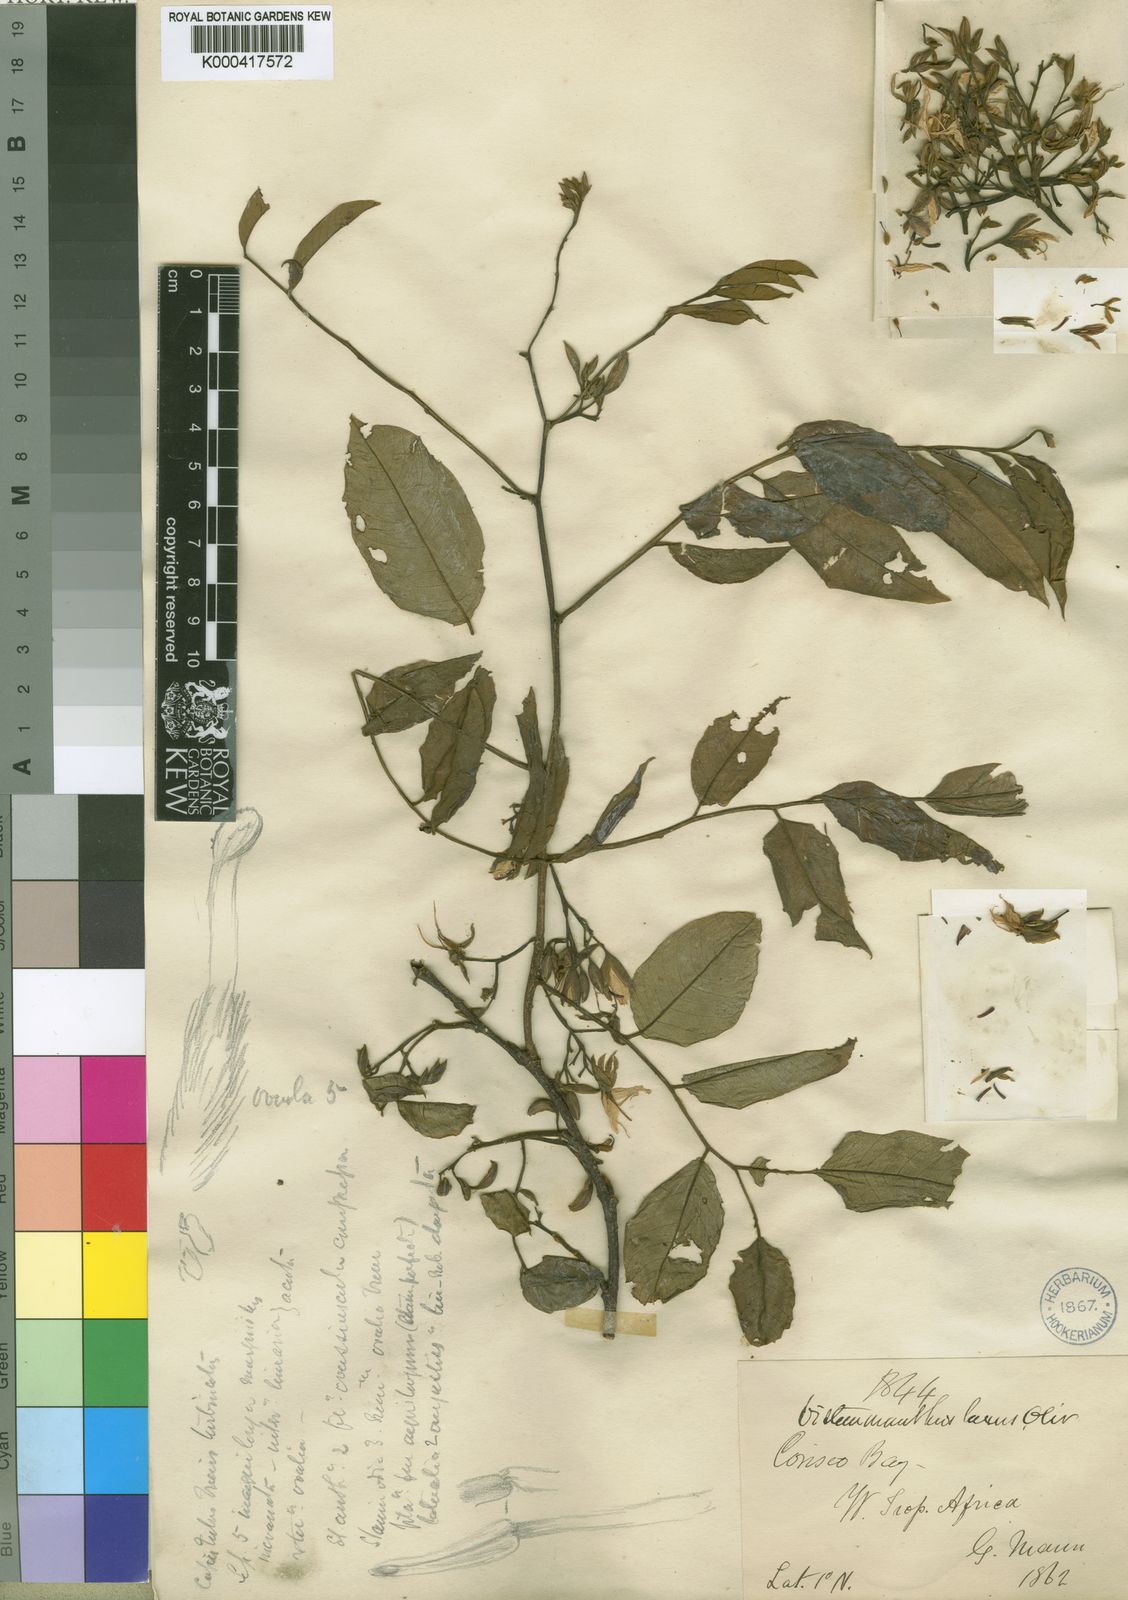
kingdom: Plantae
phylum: Tracheophyta
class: Magnoliopsida
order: Fabales
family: Fabaceae
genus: Distemonanthus
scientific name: Distemonanthus benthamianus
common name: Yellow satinwood
